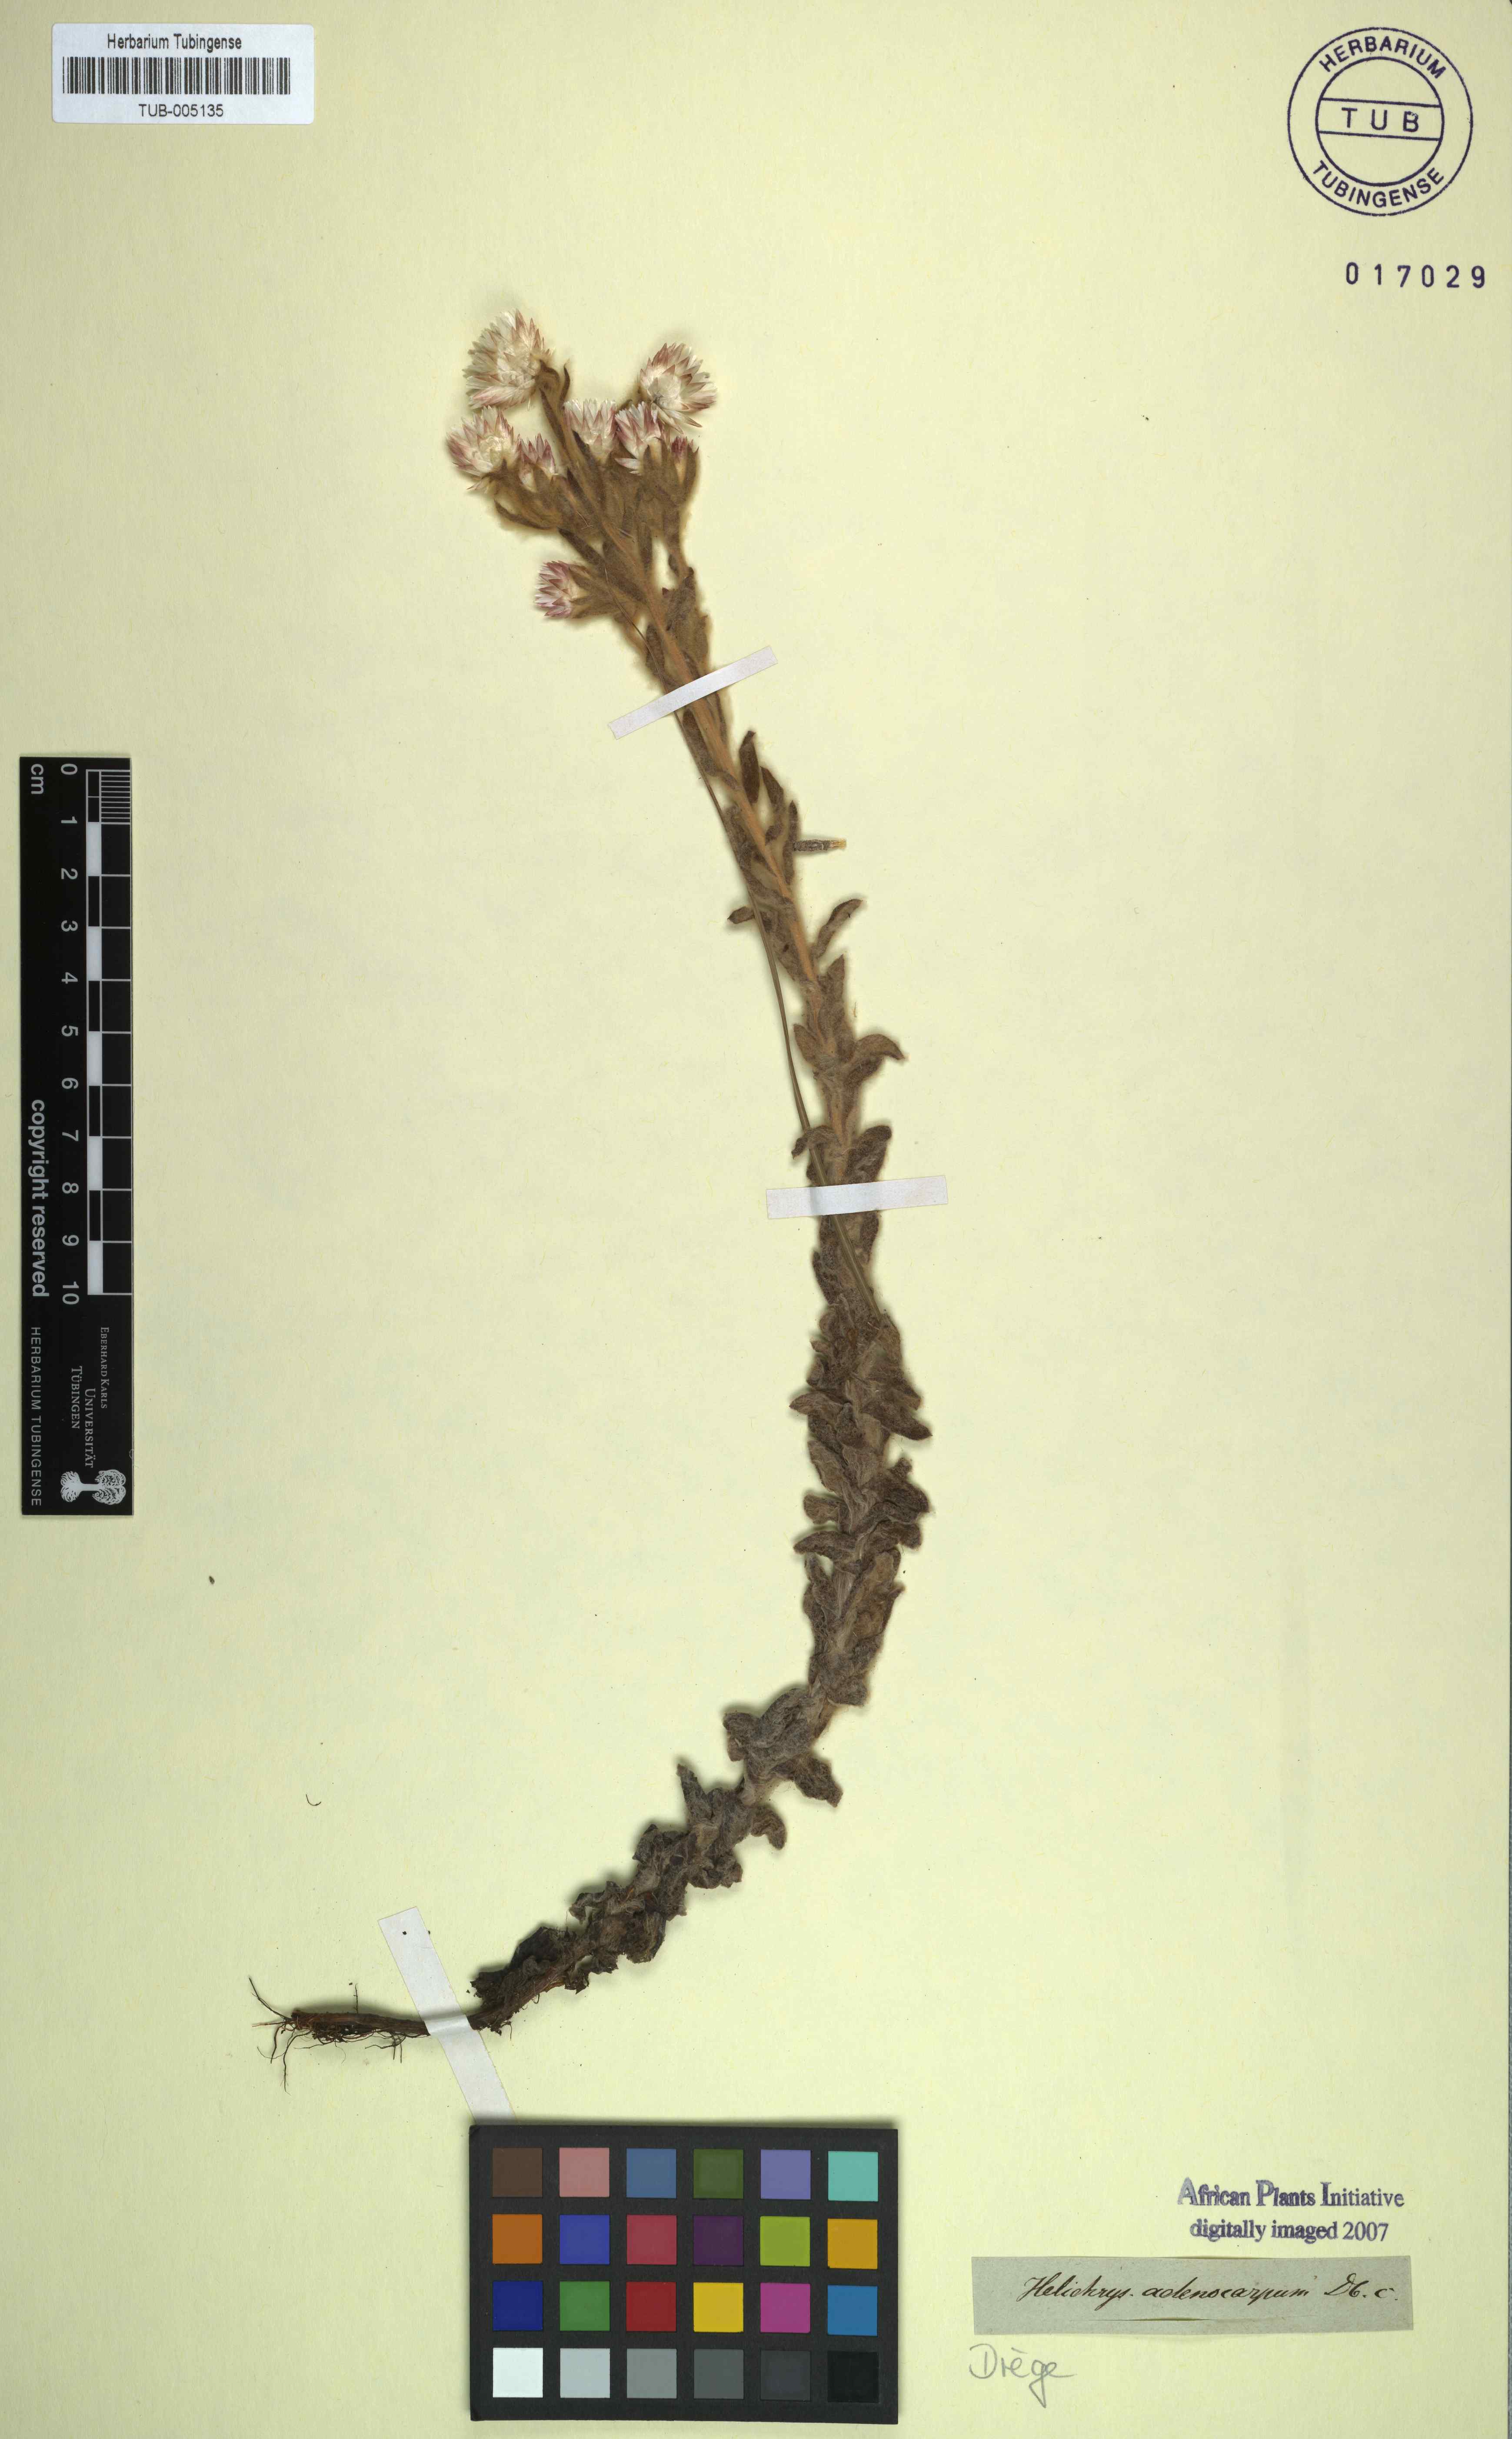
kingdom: Plantae
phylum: Tracheophyta
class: Magnoliopsida
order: Asterales
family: Asteraceae
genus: Helichrysum
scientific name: Helichrysum adenocarpum
